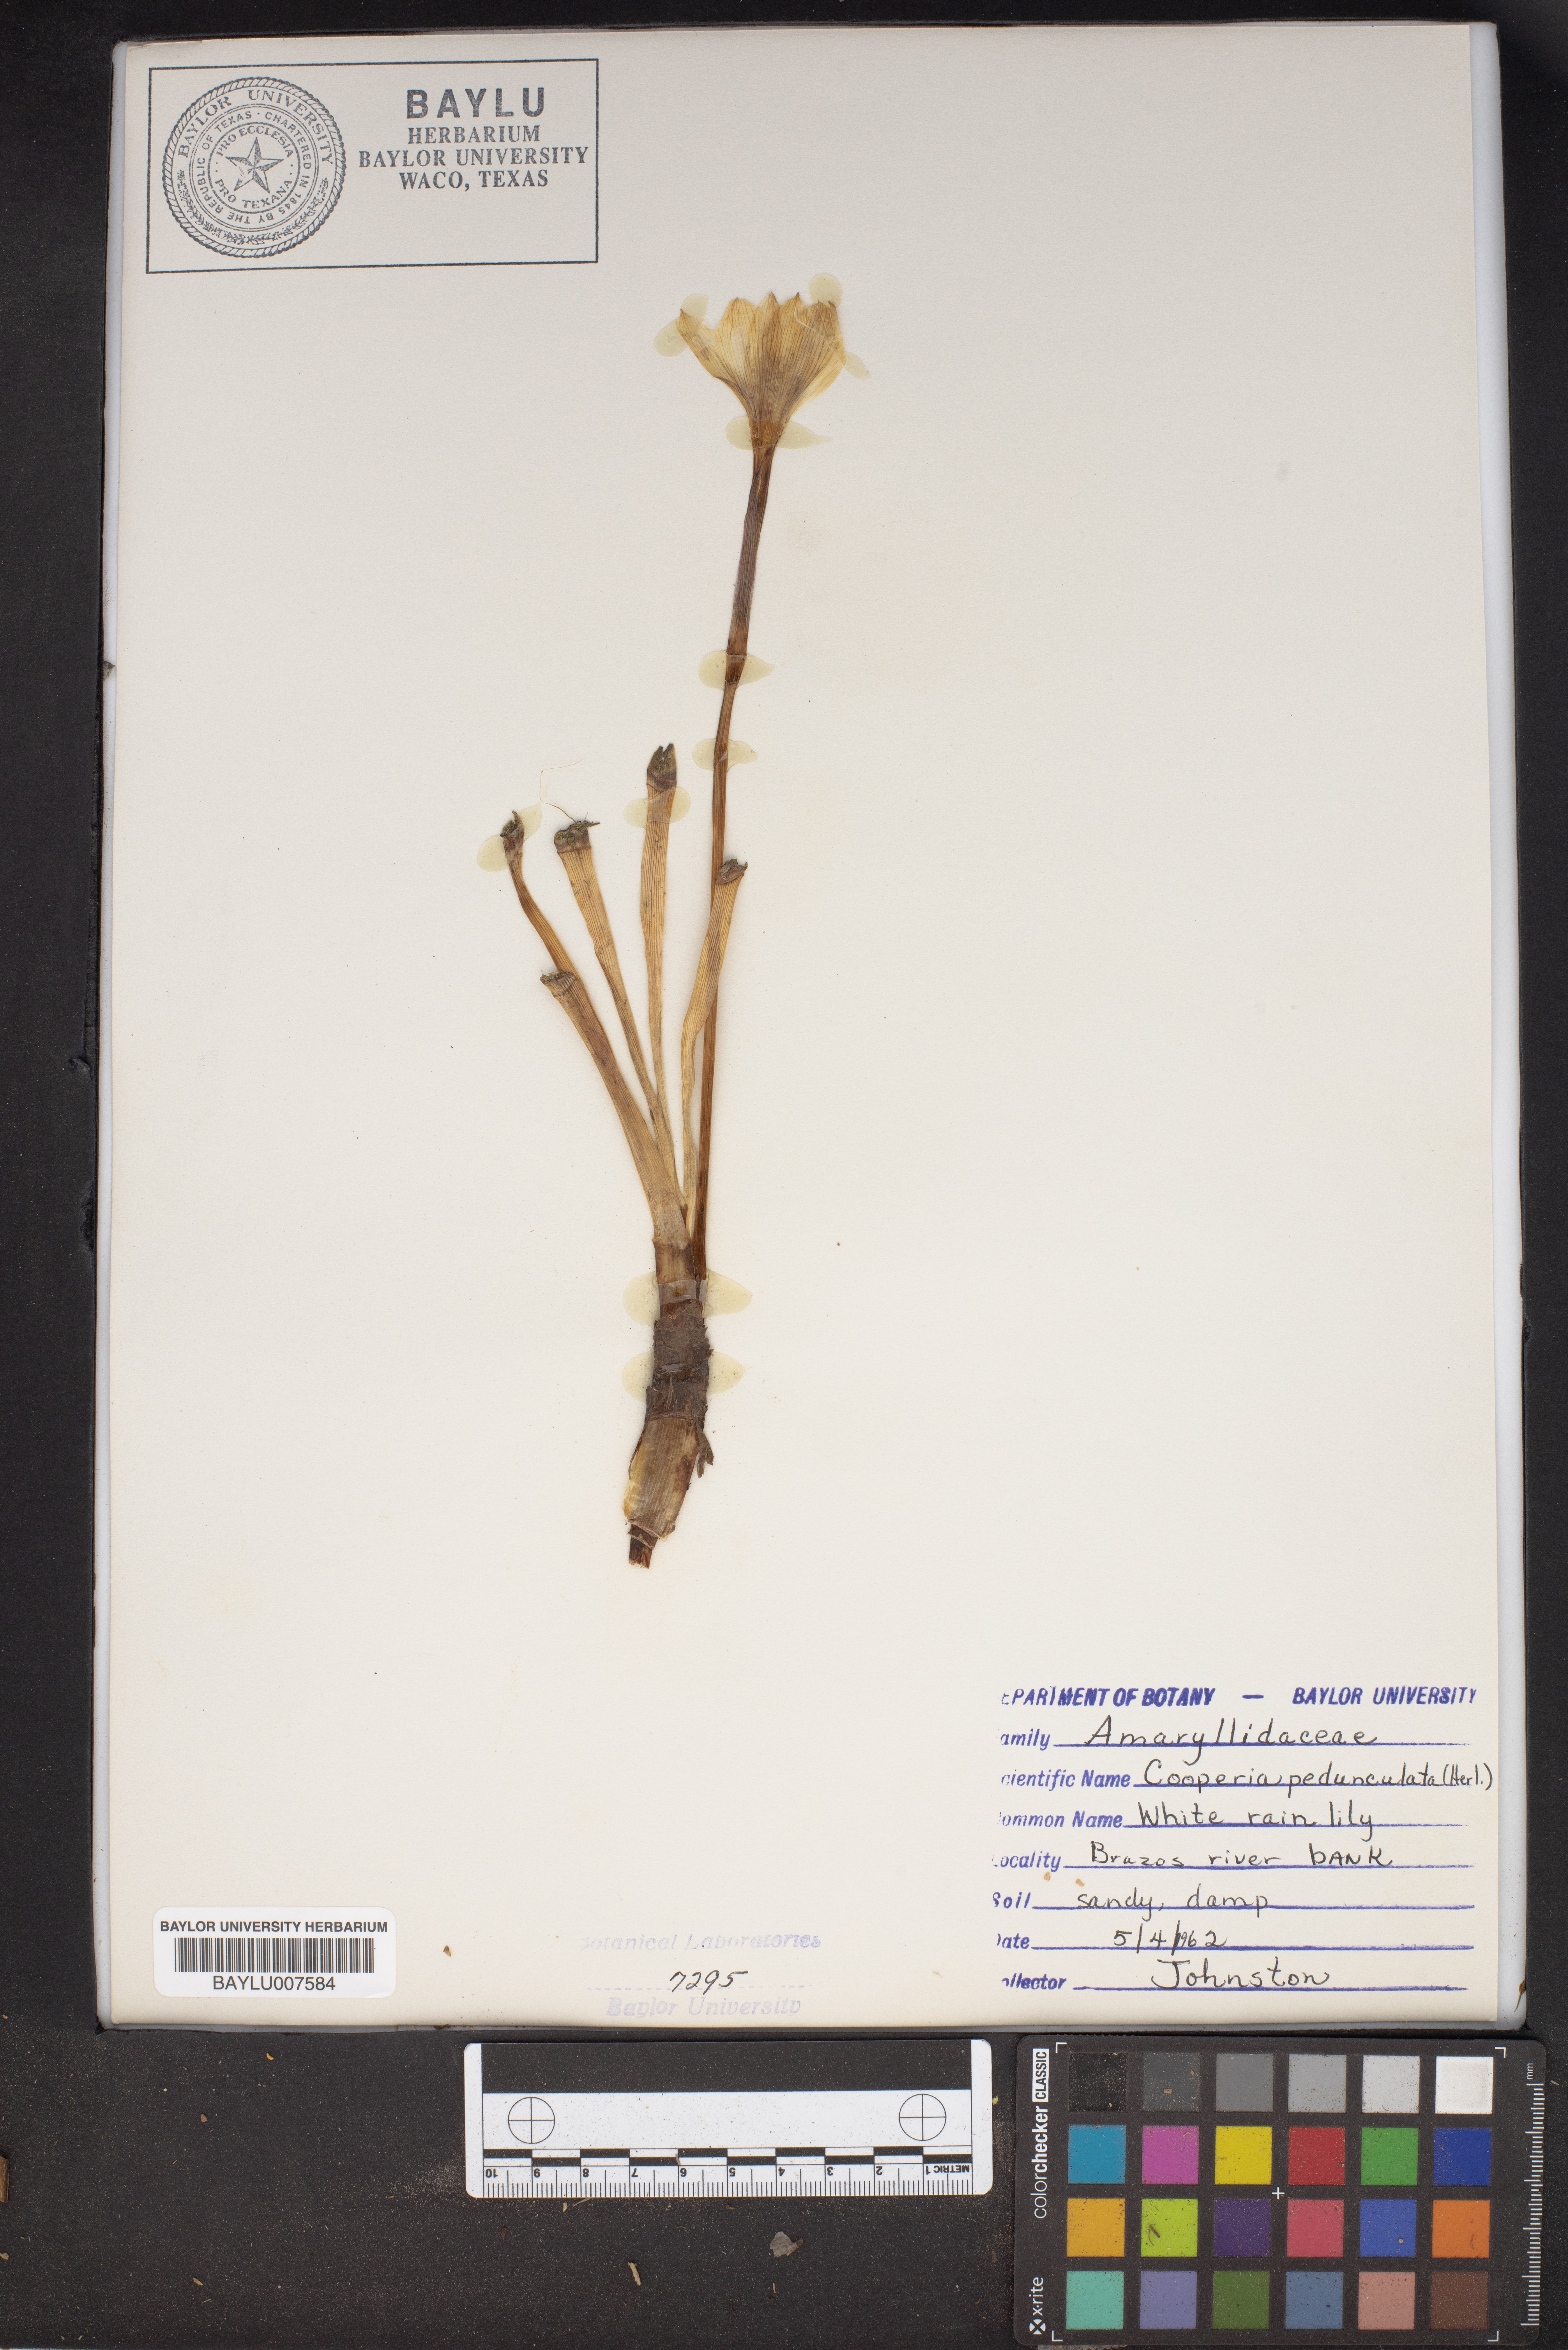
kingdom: Plantae
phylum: Tracheophyta
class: Liliopsida
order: Asparagales
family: Amaryllidaceae
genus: Zephyranthes
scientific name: Zephyranthes drummondii
